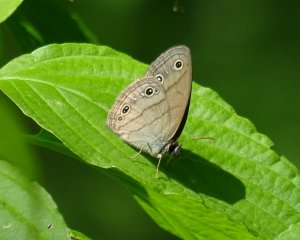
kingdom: Animalia
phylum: Arthropoda
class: Insecta
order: Lepidoptera
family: Nymphalidae
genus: Euptychia
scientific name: Euptychia cymela
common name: Little Wood Satyr
